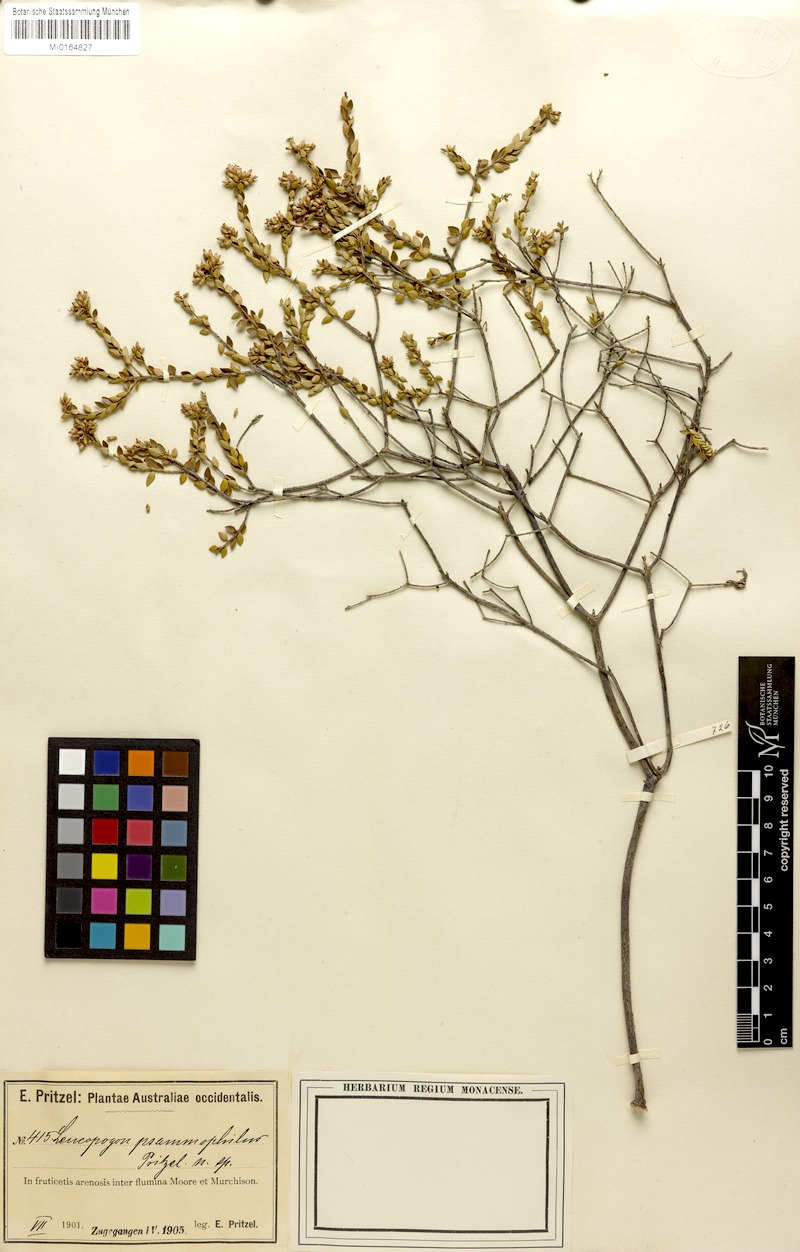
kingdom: Plantae
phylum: Tracheophyta
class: Magnoliopsida
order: Ericales
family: Ericaceae
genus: Leucopogon
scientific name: Leucopogon psammophilus
